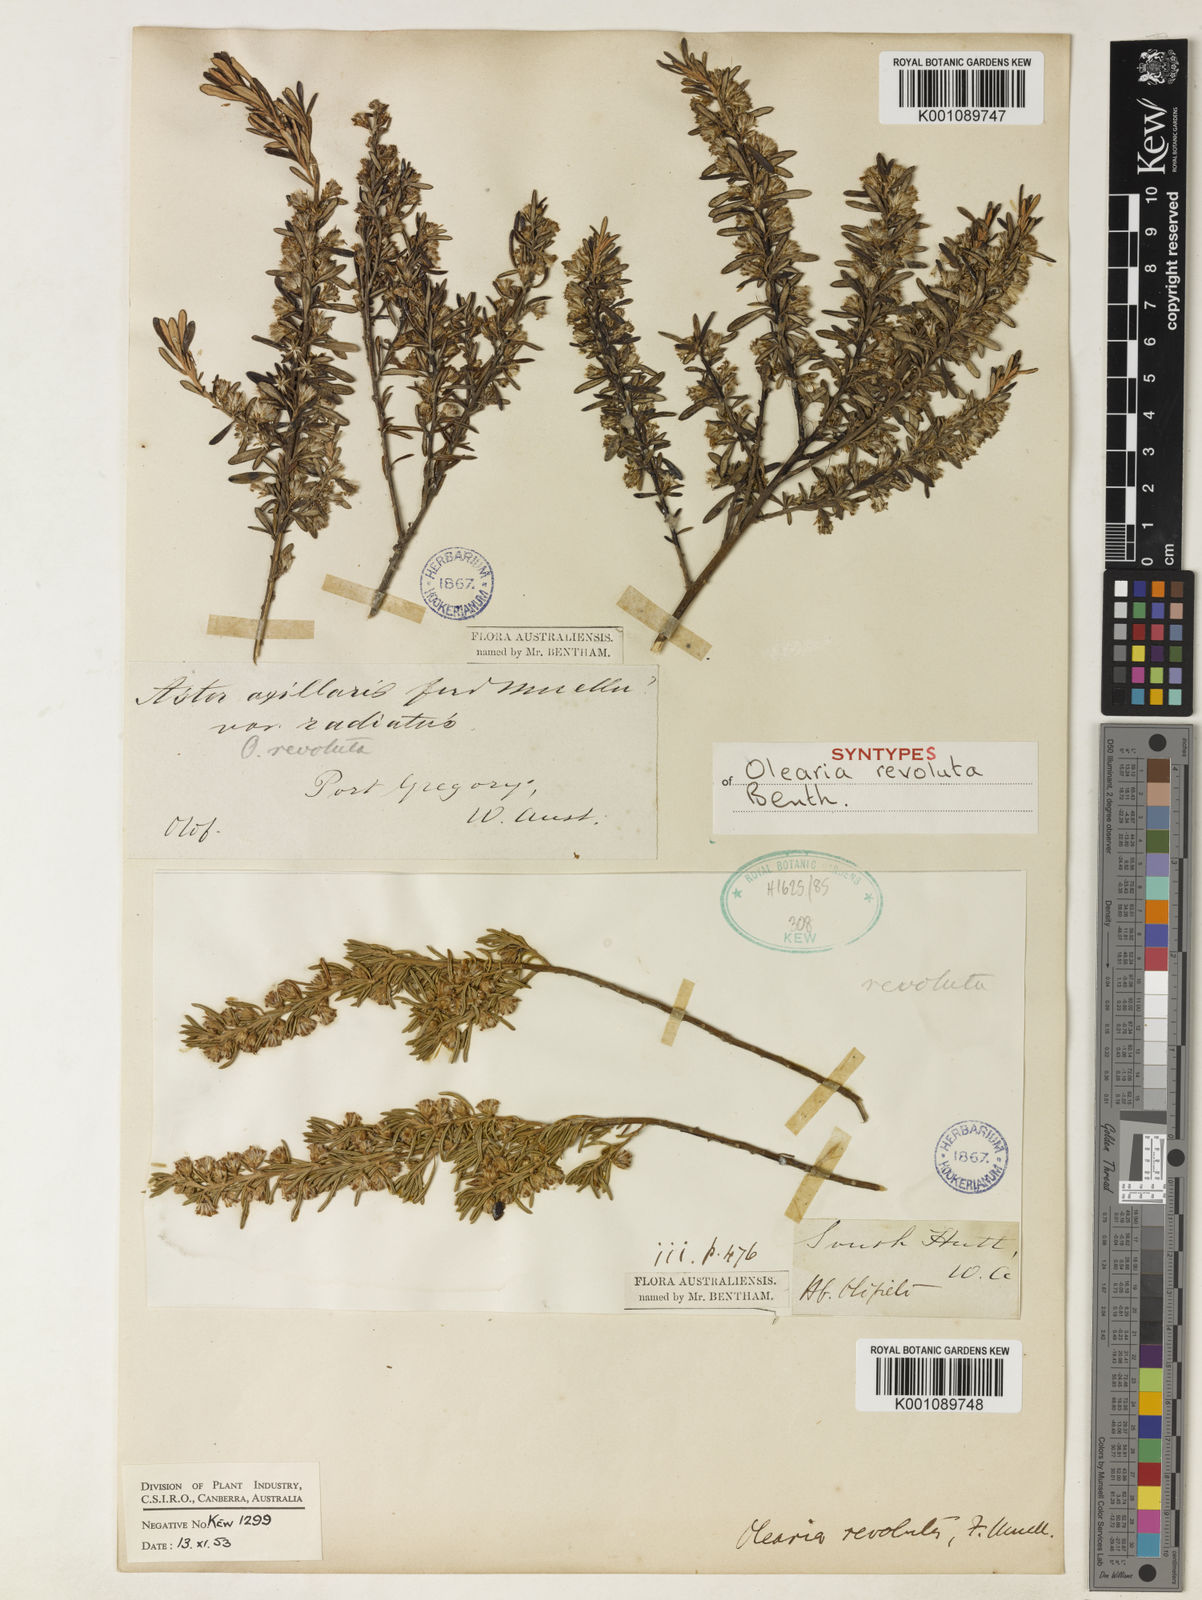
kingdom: Plantae
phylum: Tracheophyta
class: Magnoliopsida
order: Asterales
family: Asteraceae
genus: Olearia
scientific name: Olearia revoluta
